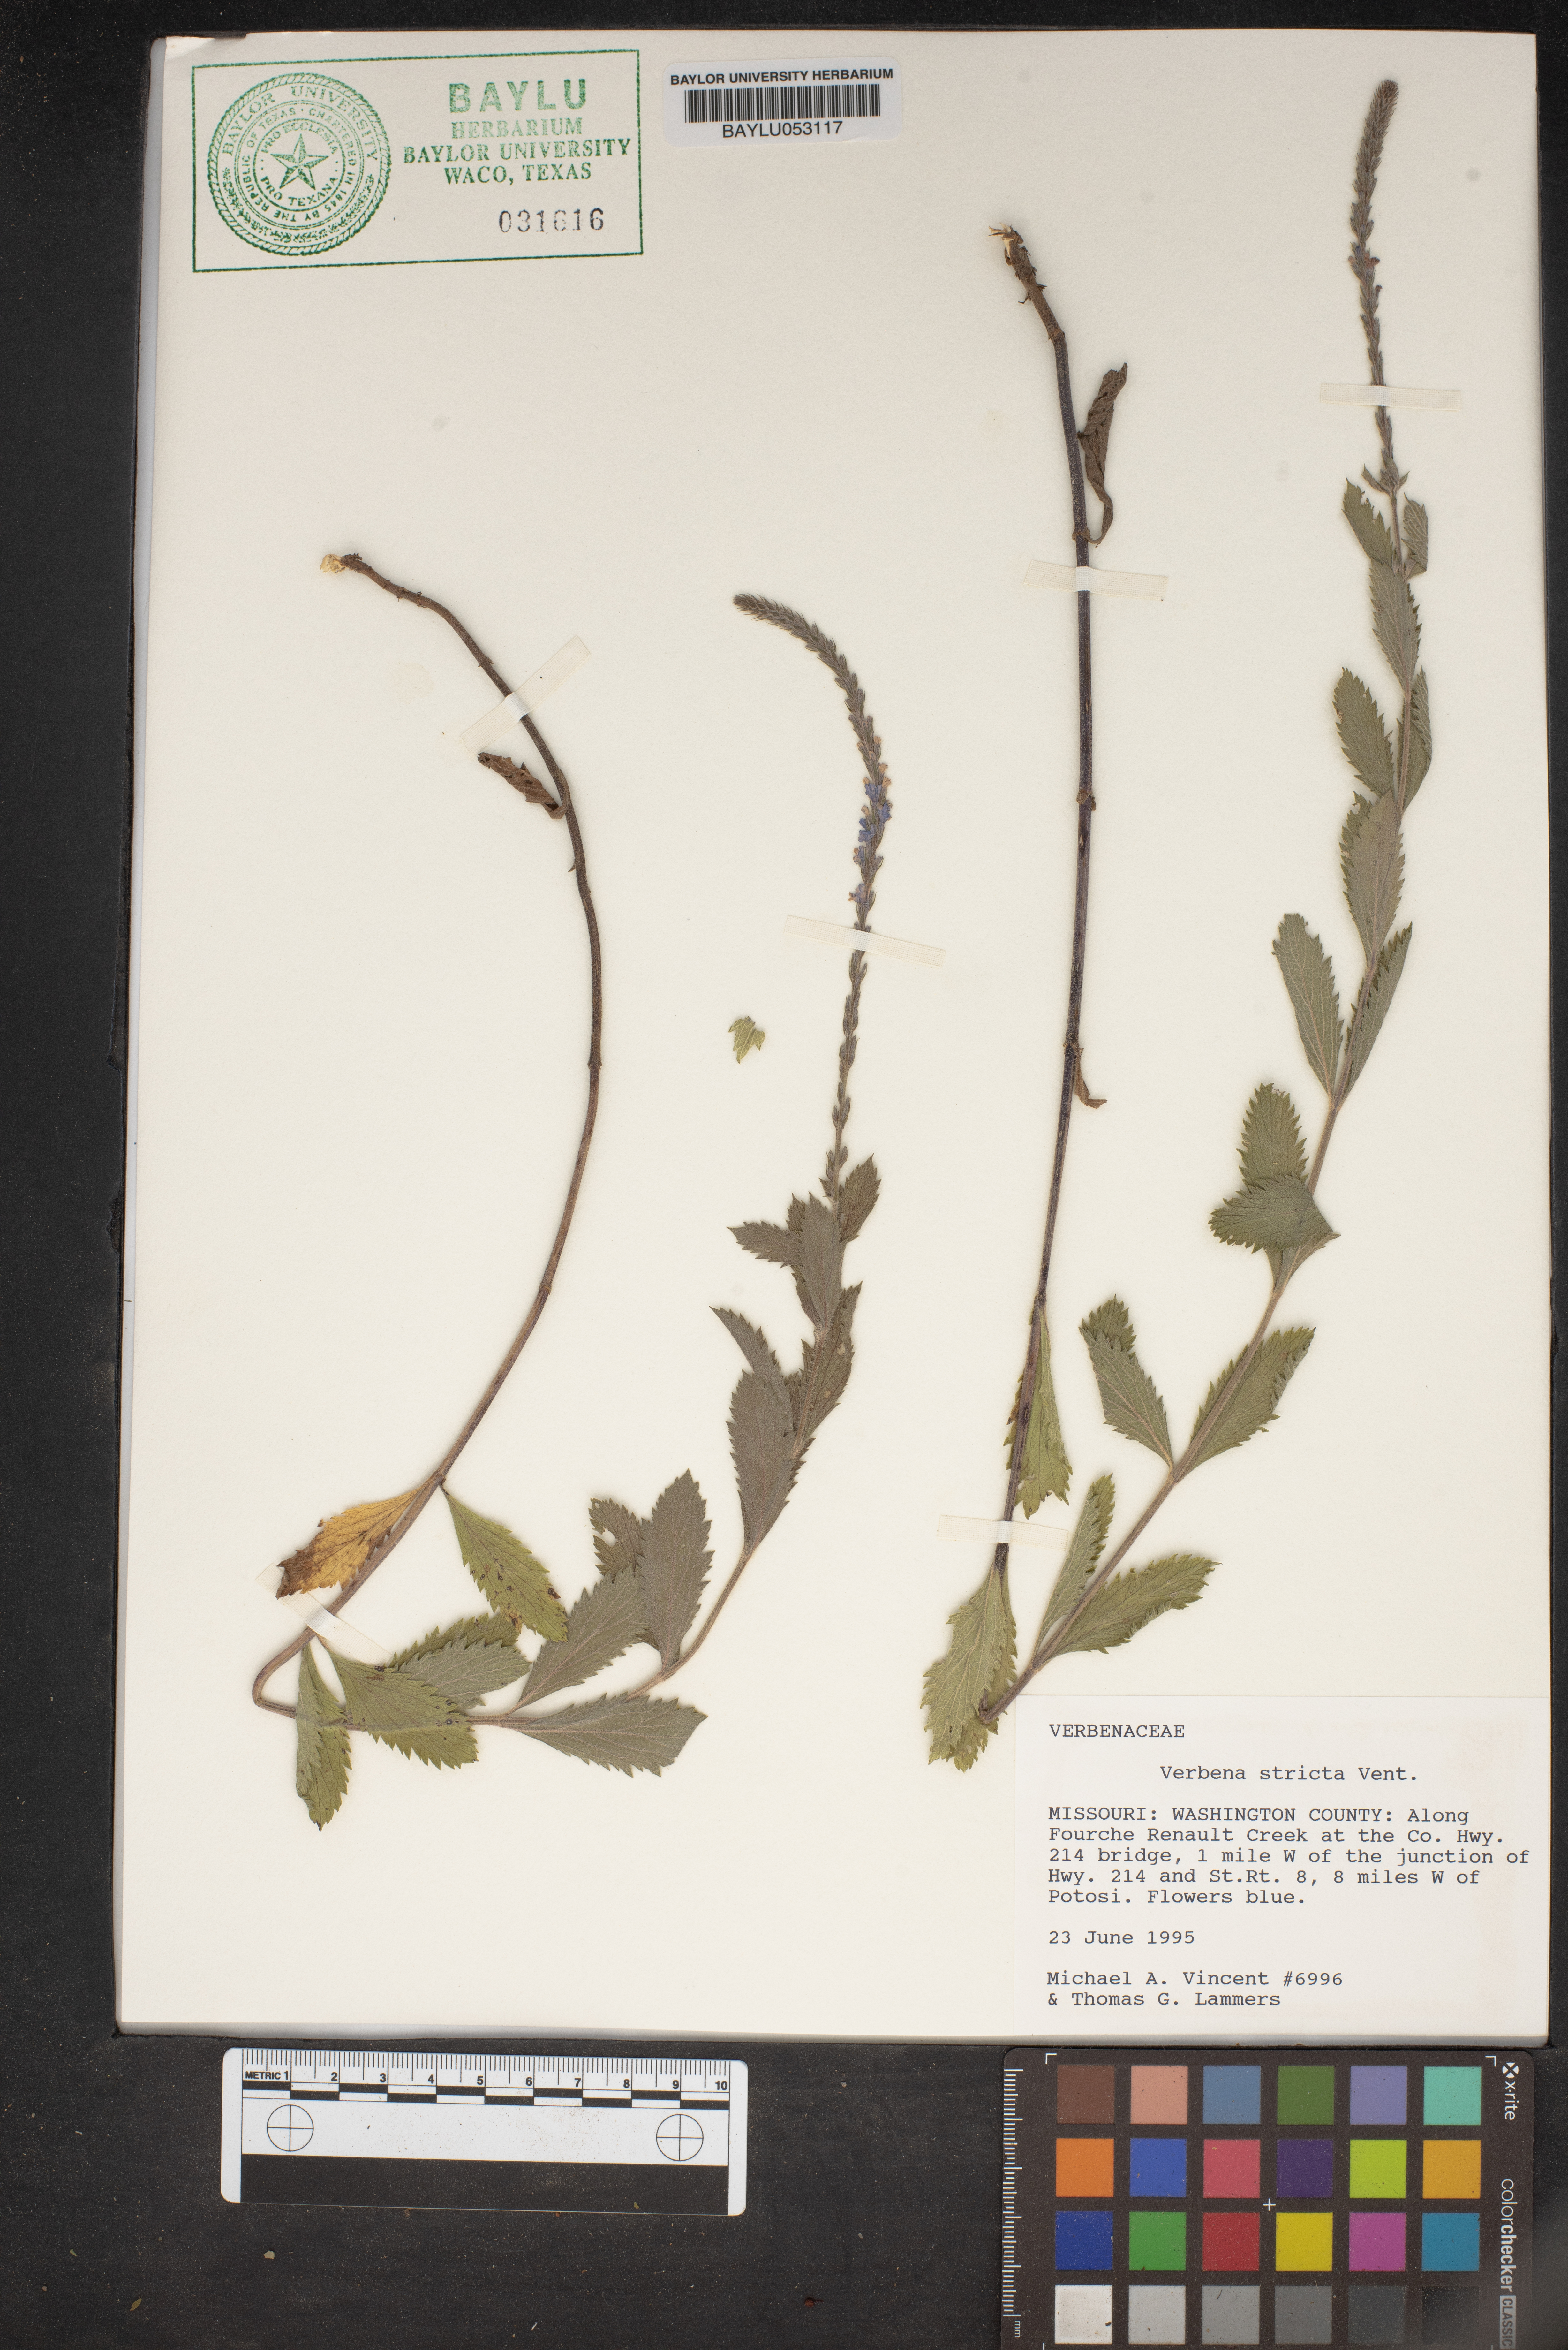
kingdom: Plantae
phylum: Tracheophyta
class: Magnoliopsida
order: Lamiales
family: Verbenaceae
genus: Verbena
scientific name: Verbena stricta
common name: Hoary vervain
